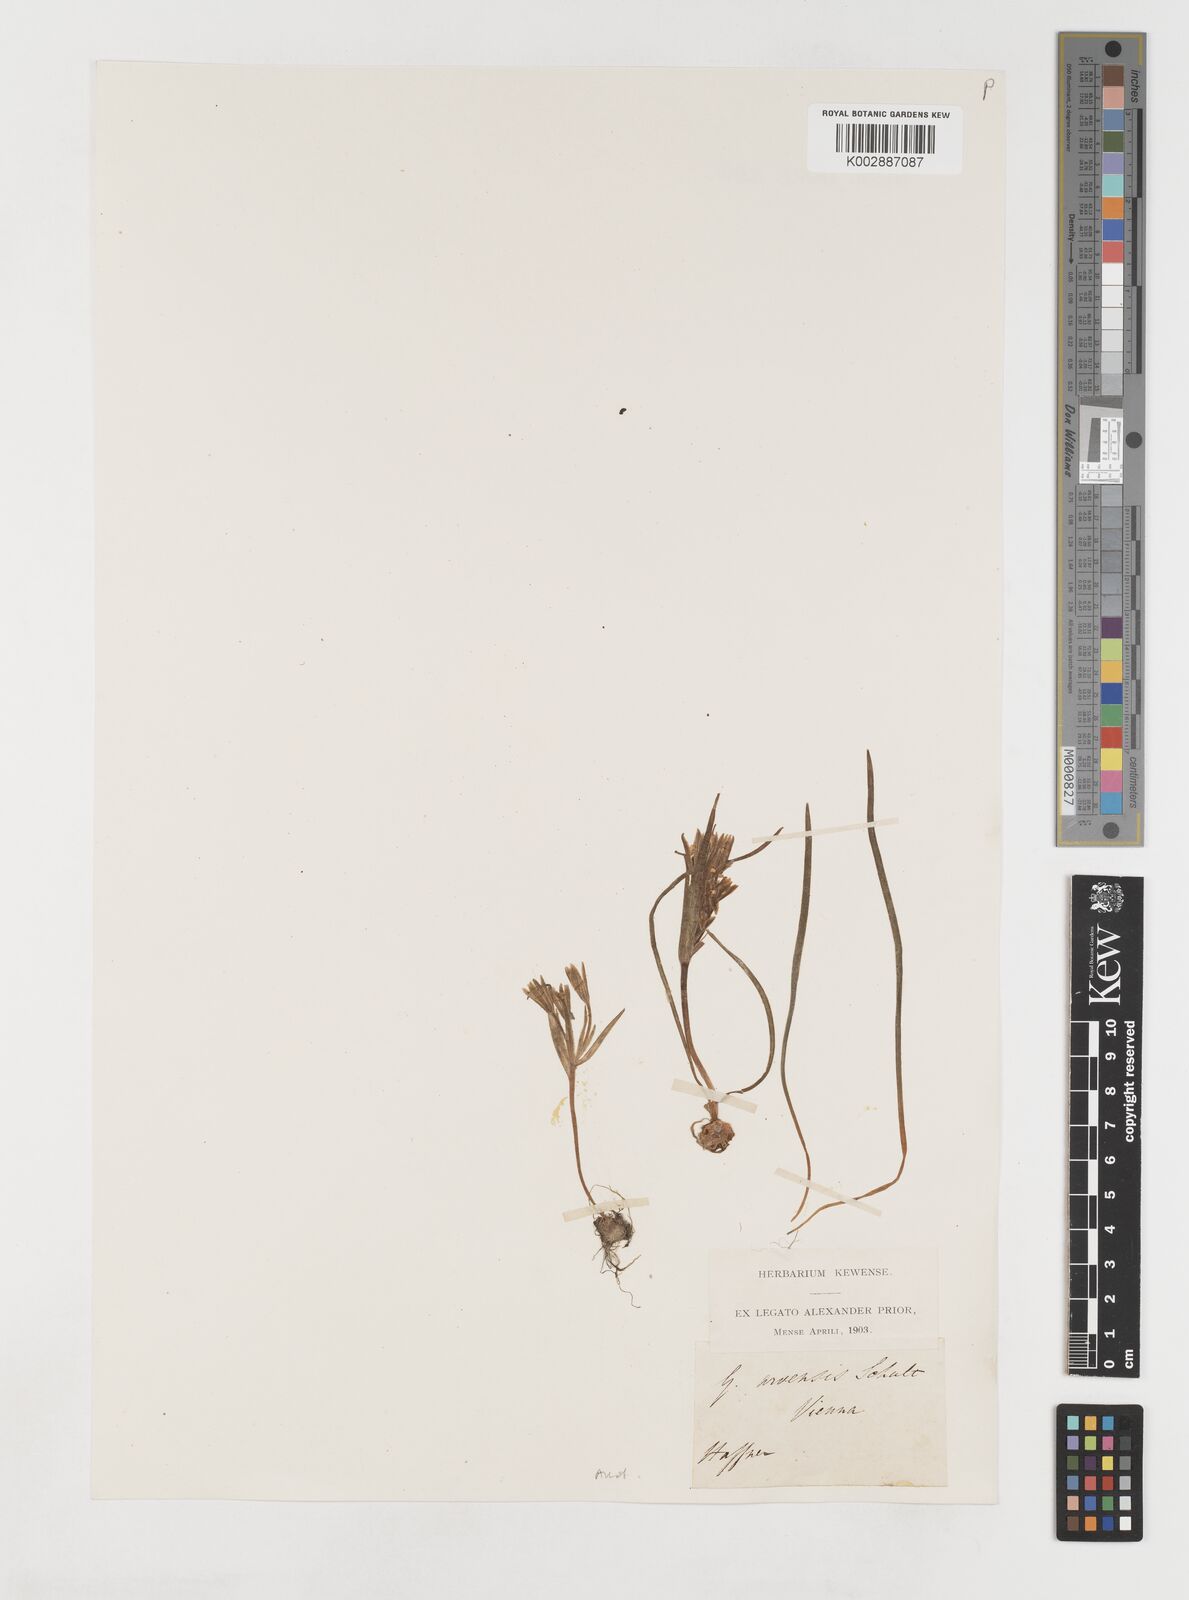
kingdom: Plantae
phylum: Tracheophyta
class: Liliopsida
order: Liliales
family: Liliaceae
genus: Gagea
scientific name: Gagea minima
